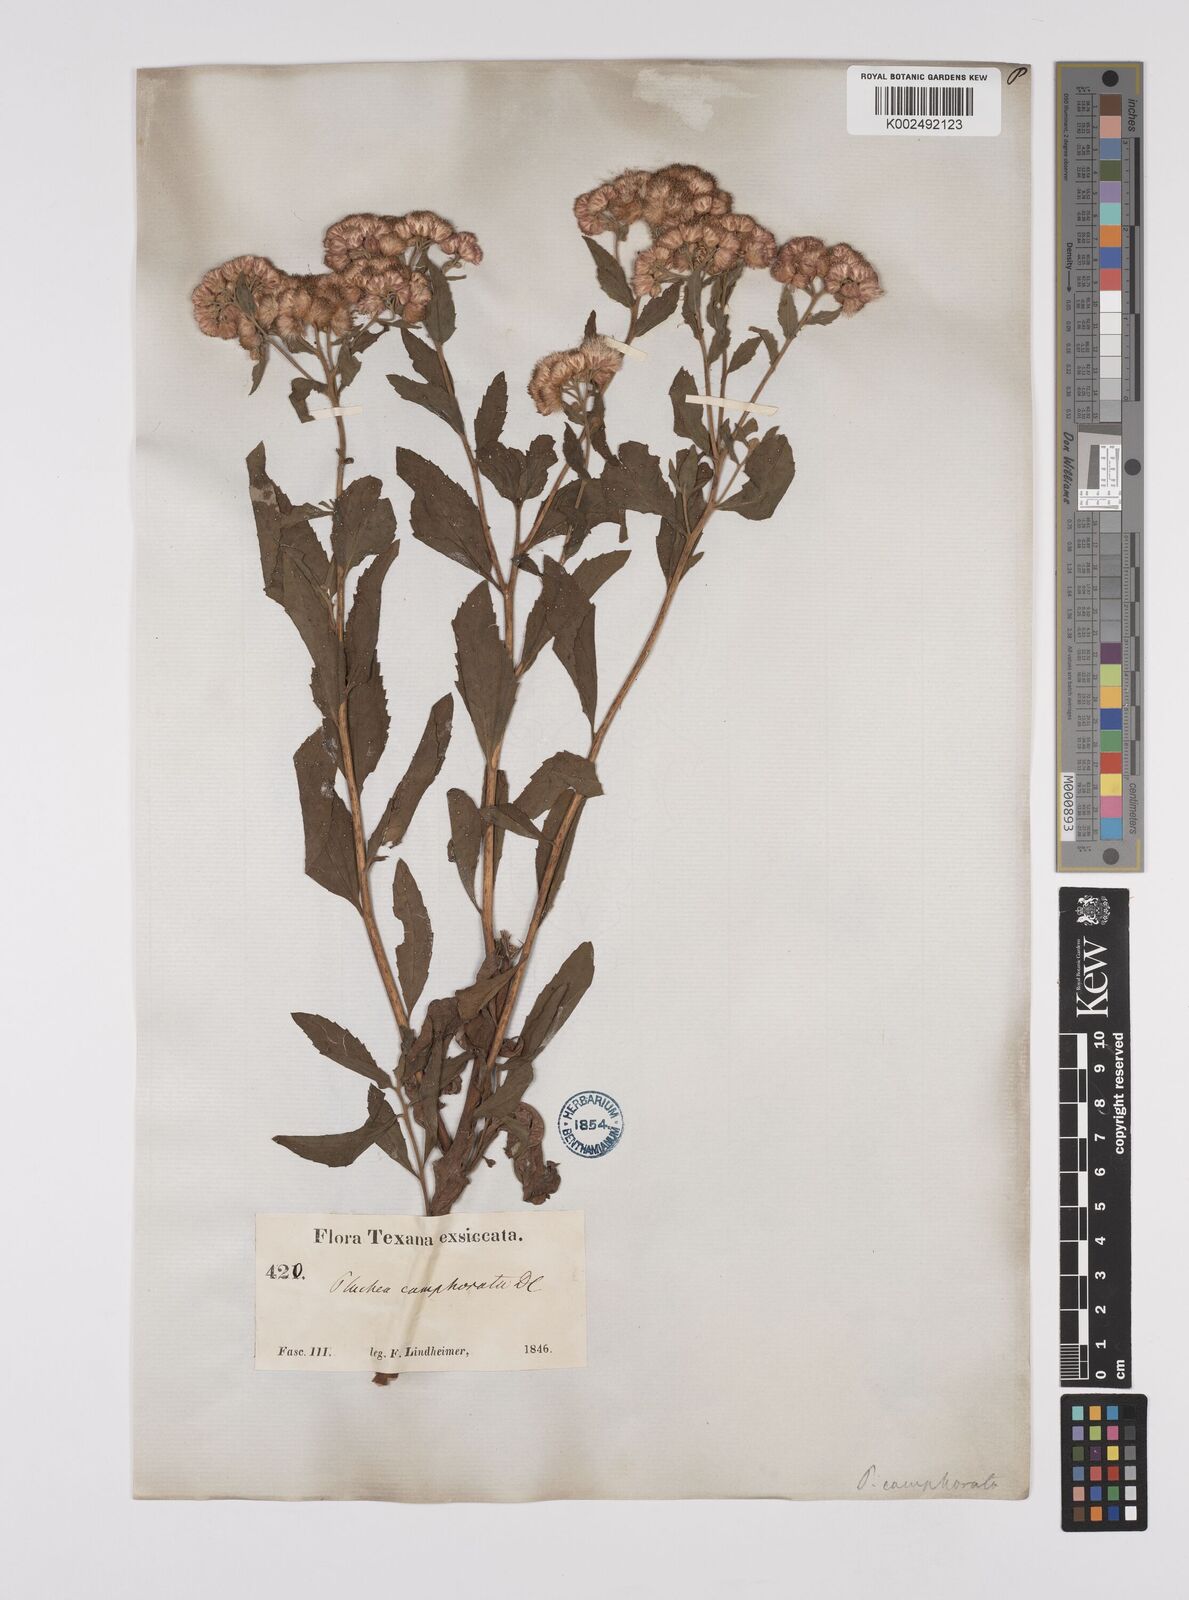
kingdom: Plantae
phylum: Tracheophyta
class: Magnoliopsida
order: Asterales
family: Asteraceae
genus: Pluchea
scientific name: Pluchea camphorata
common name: Camphor pluchea
